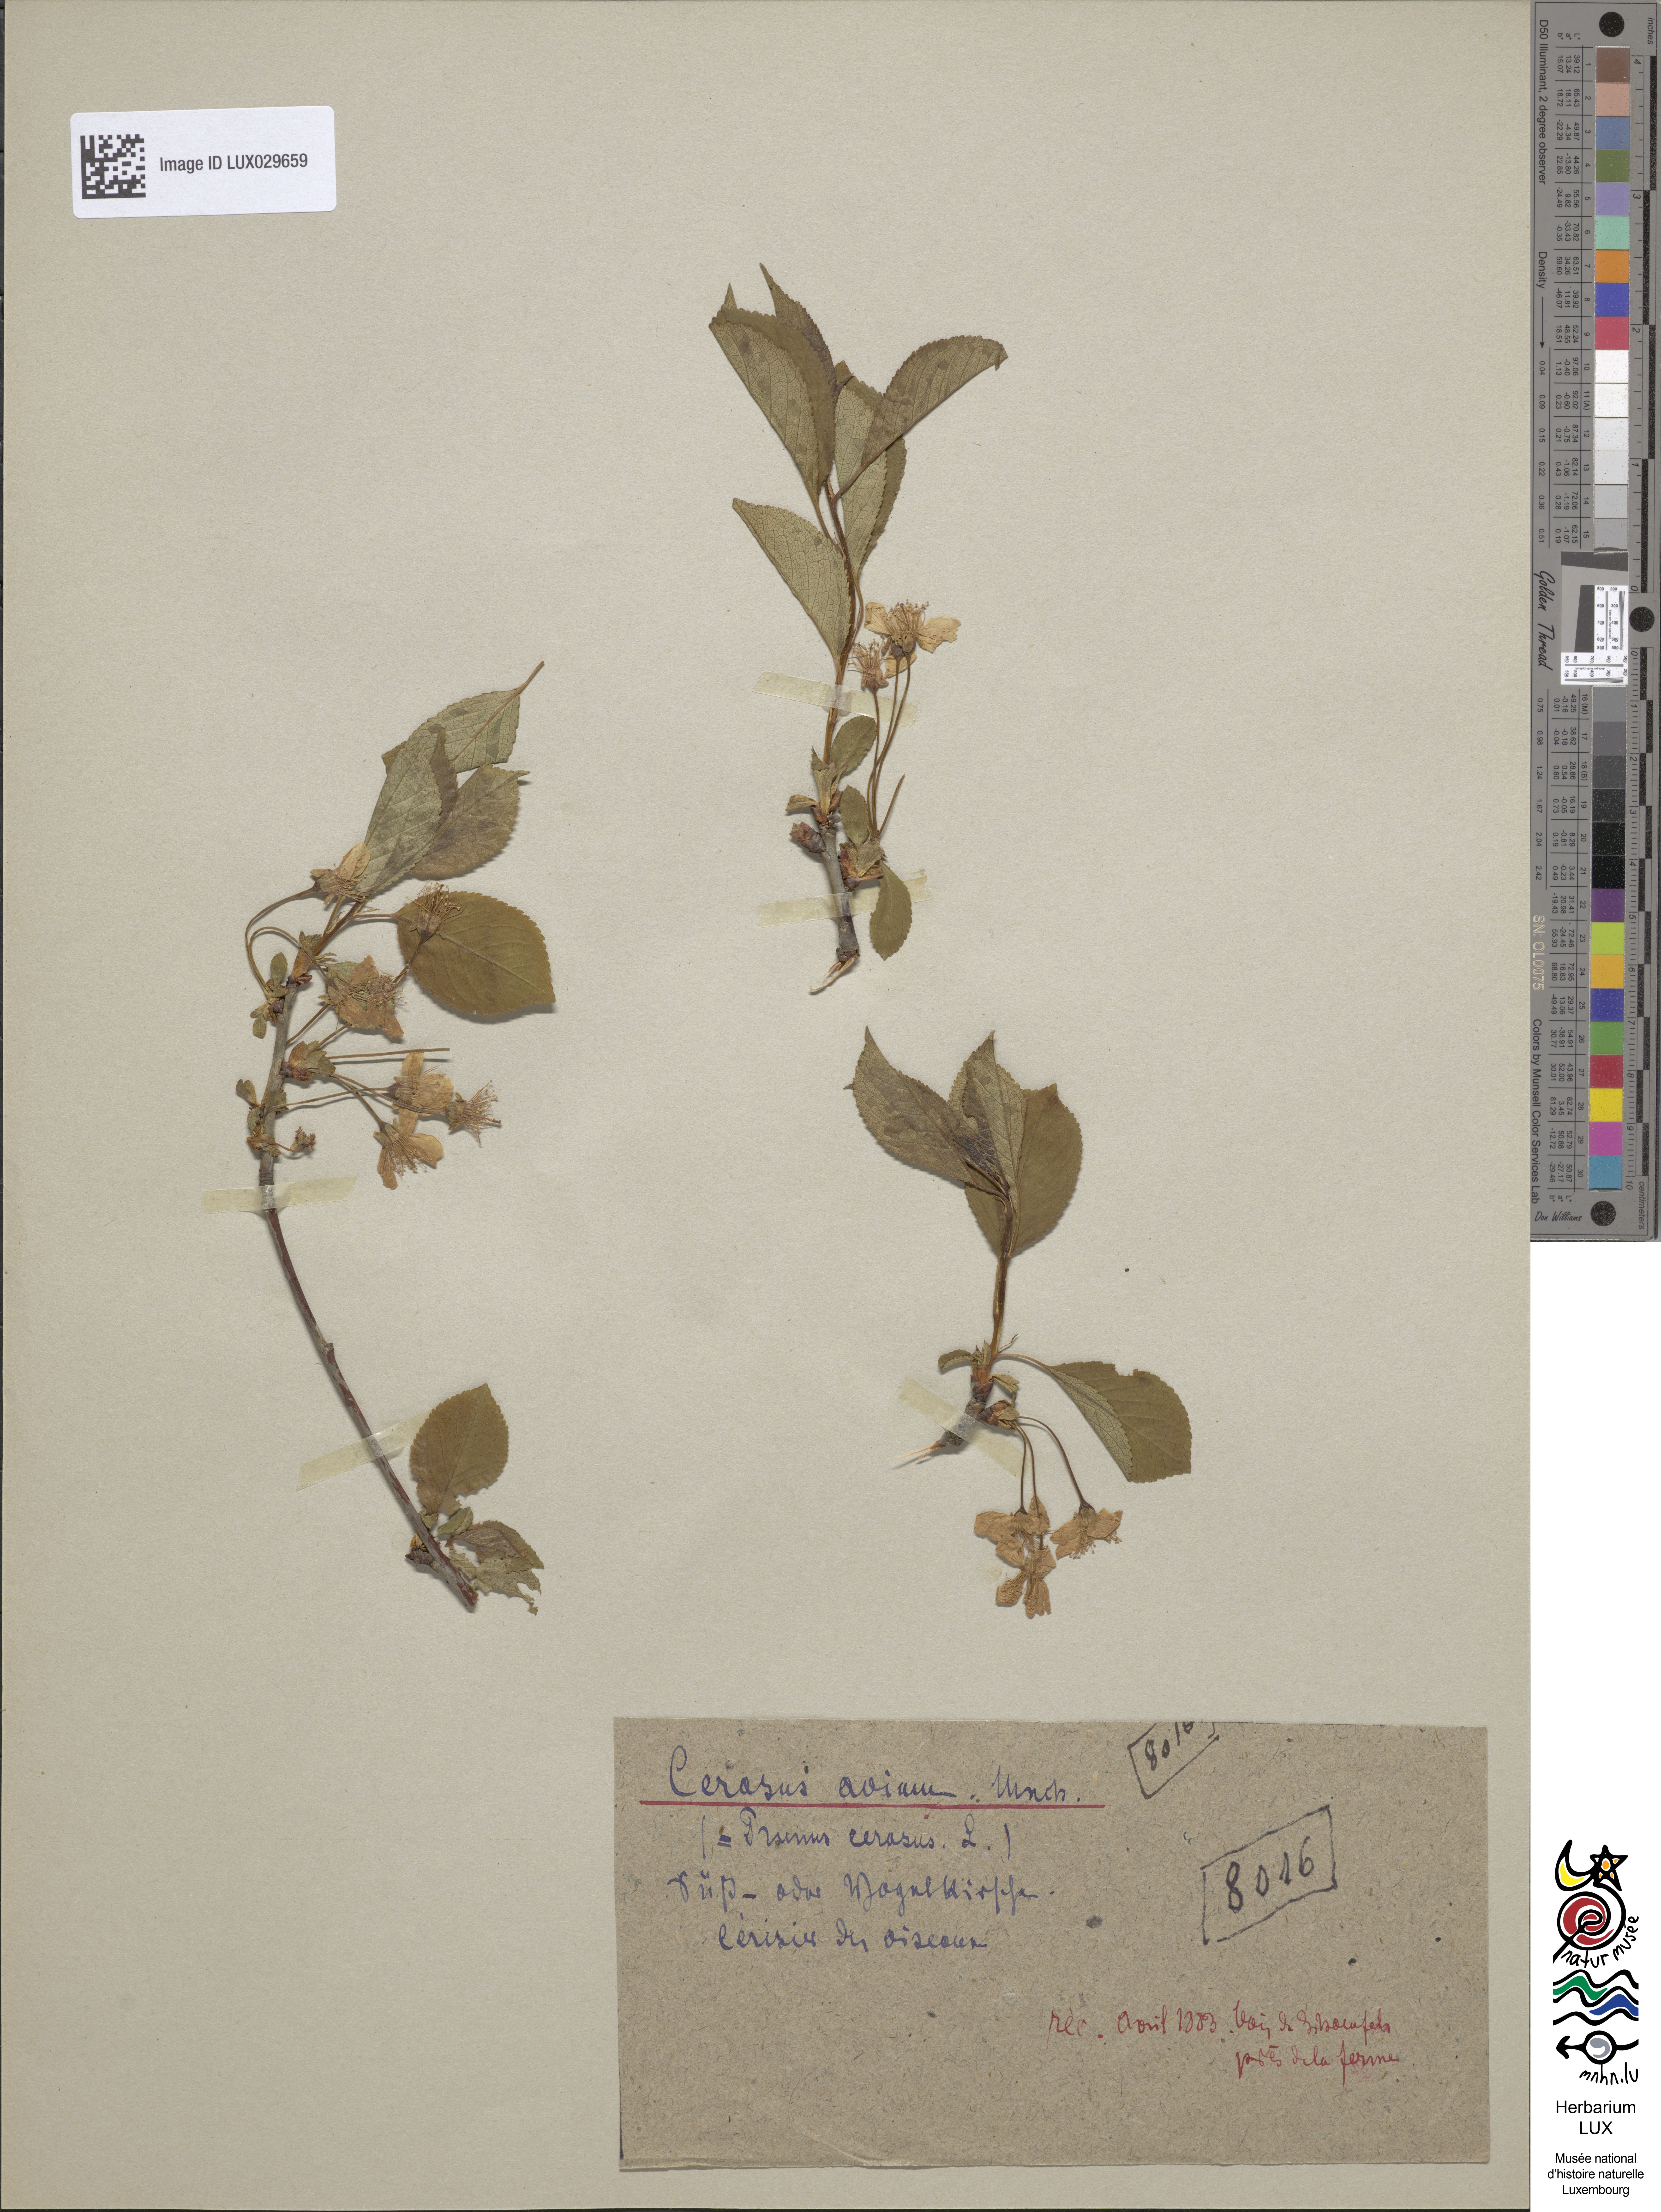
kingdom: Plantae
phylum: Tracheophyta
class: Magnoliopsida
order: Rosales
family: Rosaceae
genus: Prunus
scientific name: Prunus avium
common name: Sweet cherry
